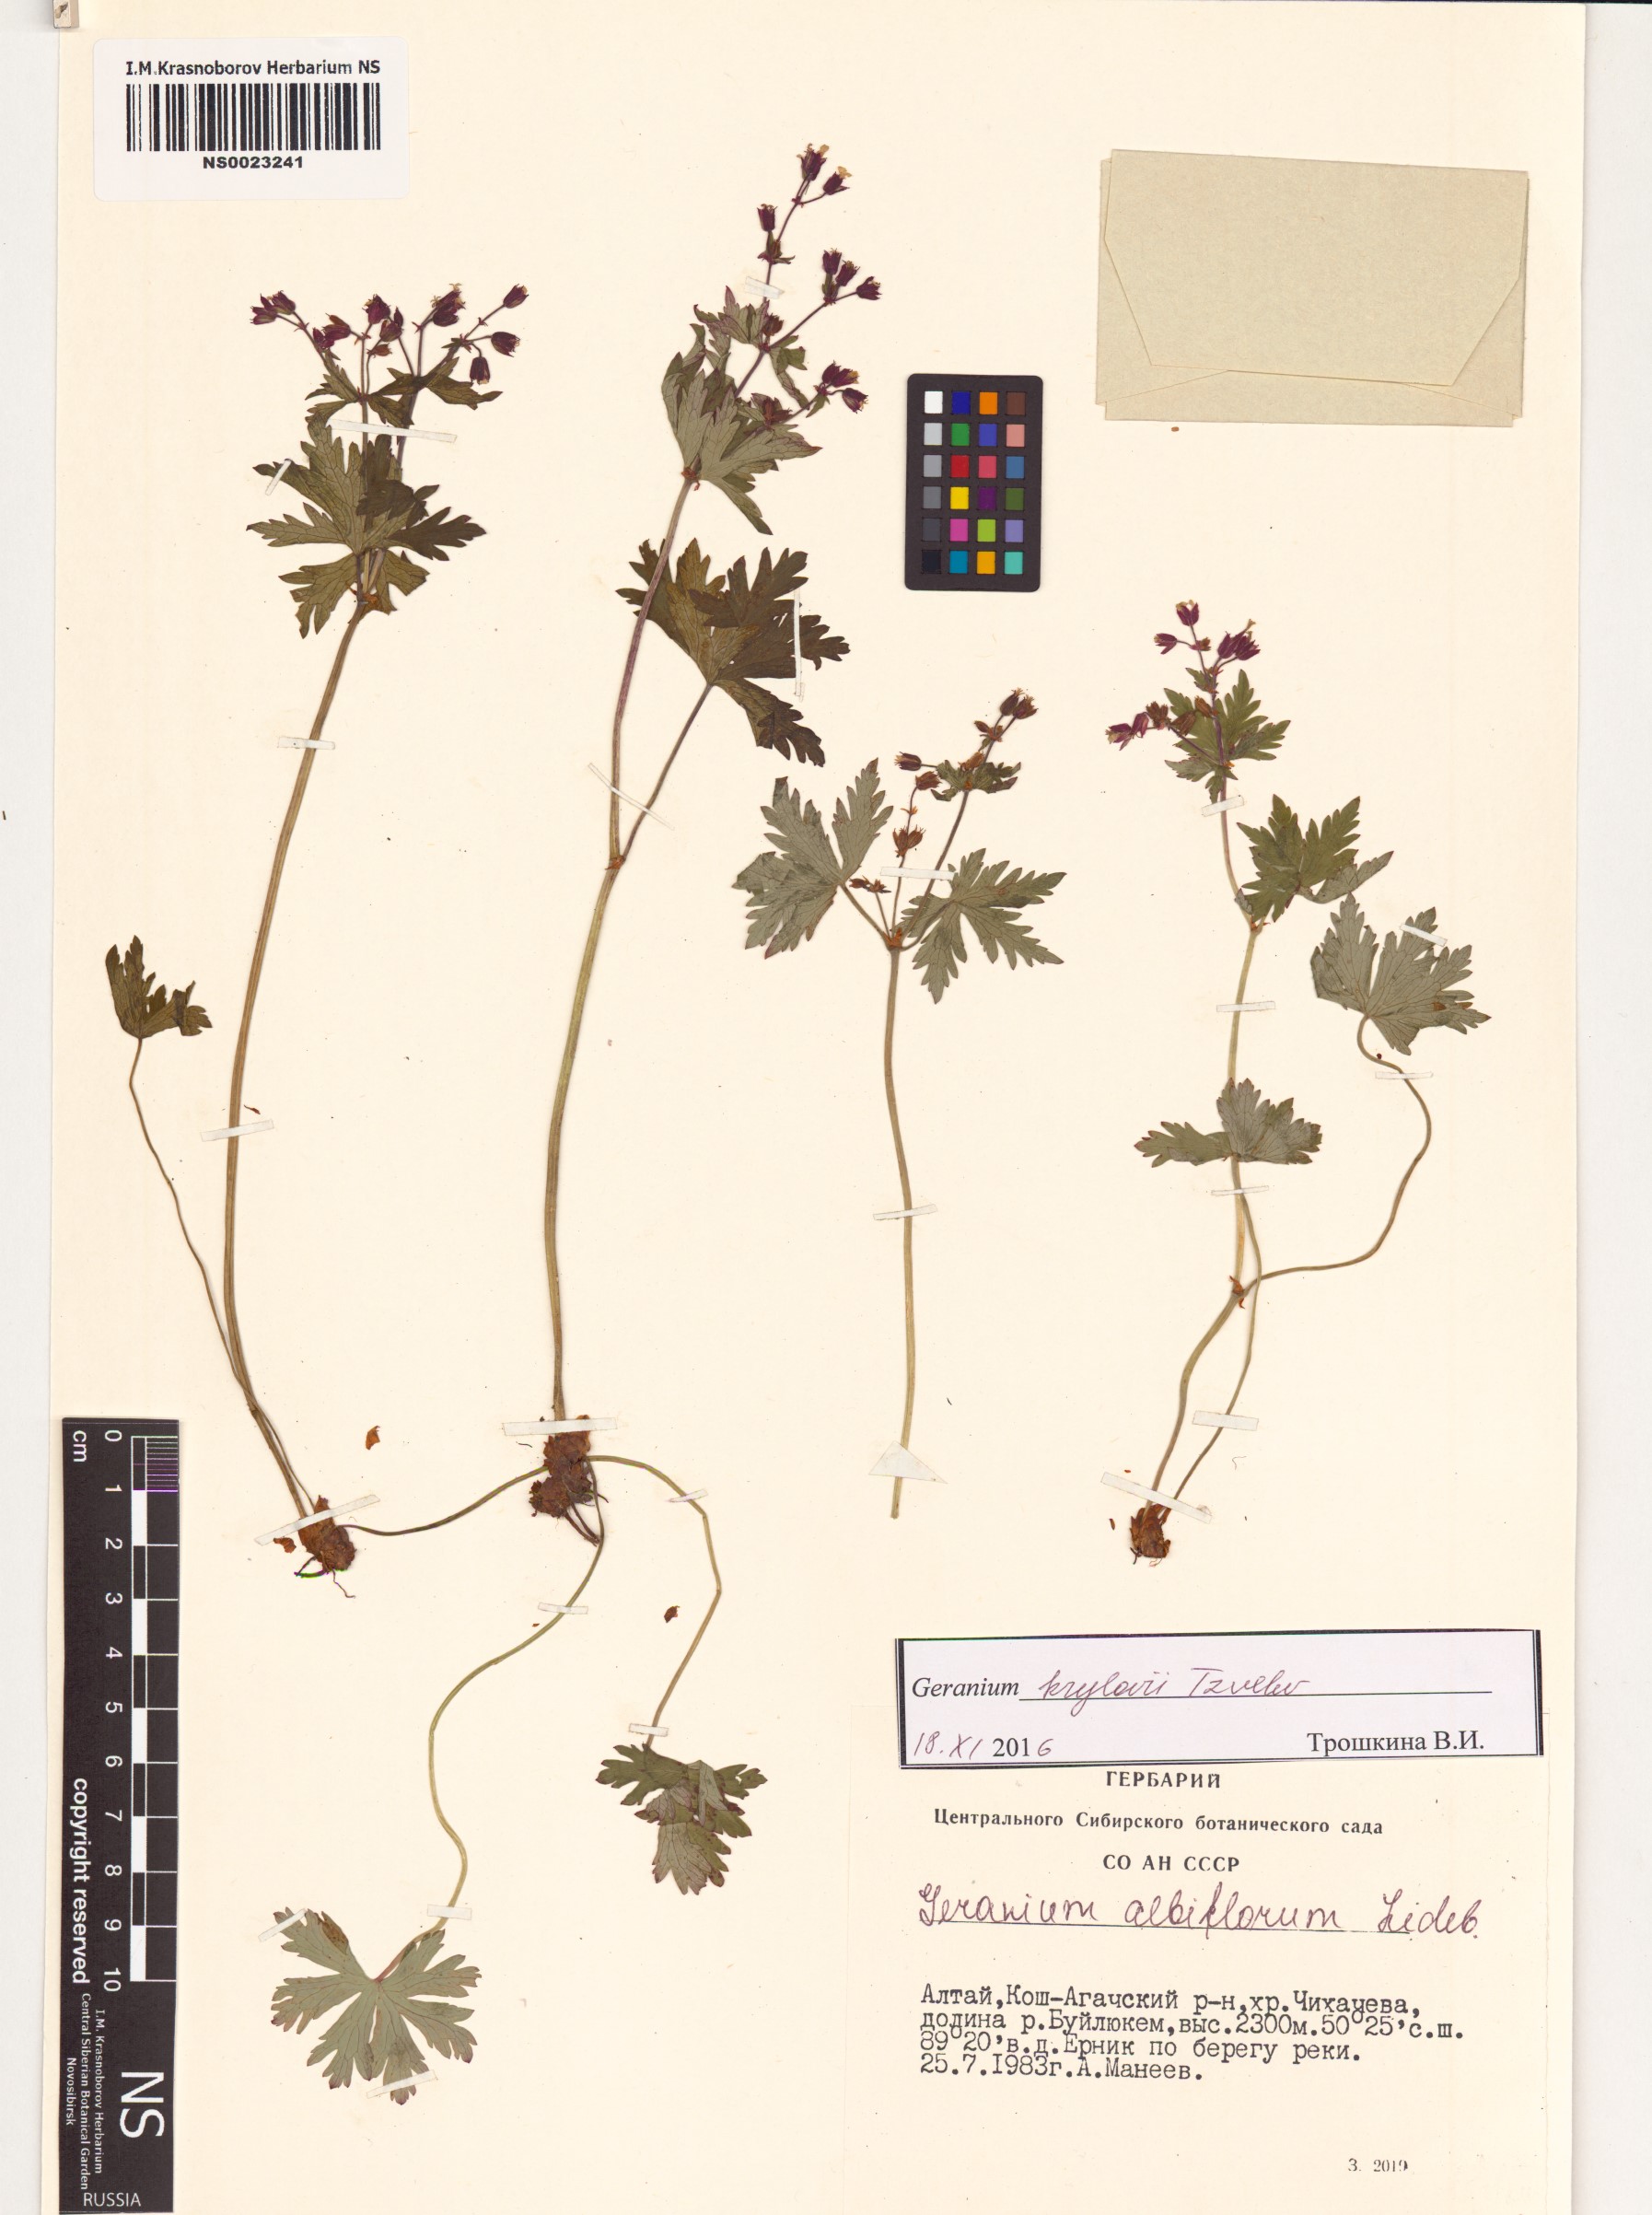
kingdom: Plantae
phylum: Tracheophyta
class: Magnoliopsida
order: Geraniales
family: Geraniaceae
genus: Geranium
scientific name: Geranium sylvaticum
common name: Wood crane's-bill
